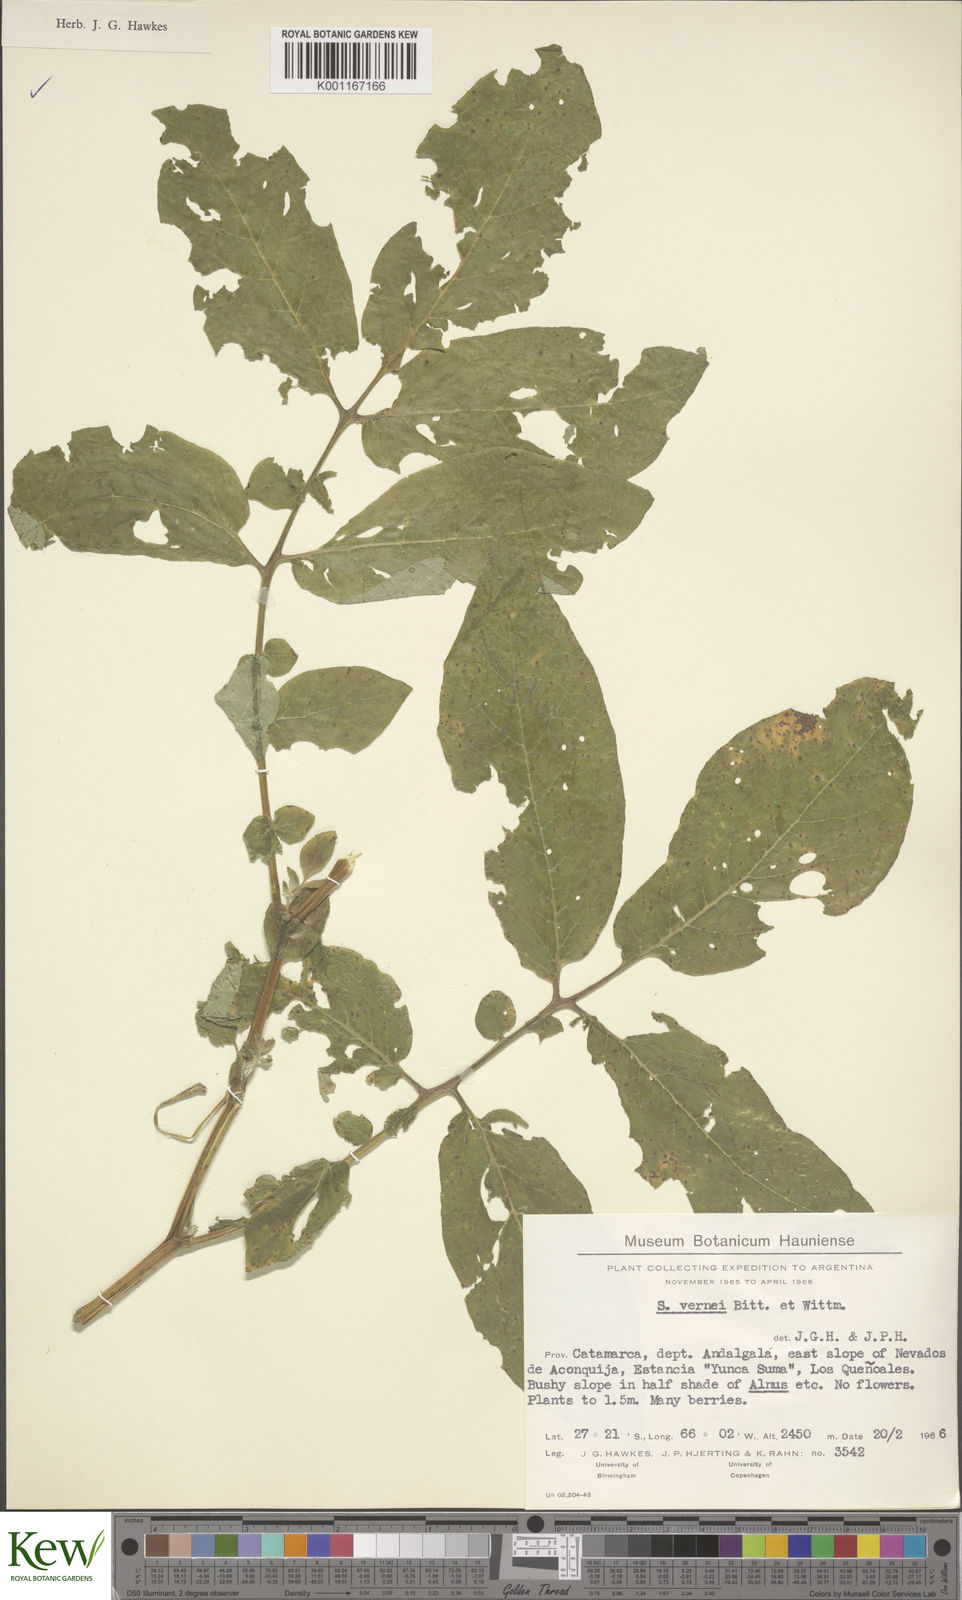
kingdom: Plantae
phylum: Tracheophyta
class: Magnoliopsida
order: Solanales
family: Solanaceae
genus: Solanum
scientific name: Solanum vernei
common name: Purple potato
